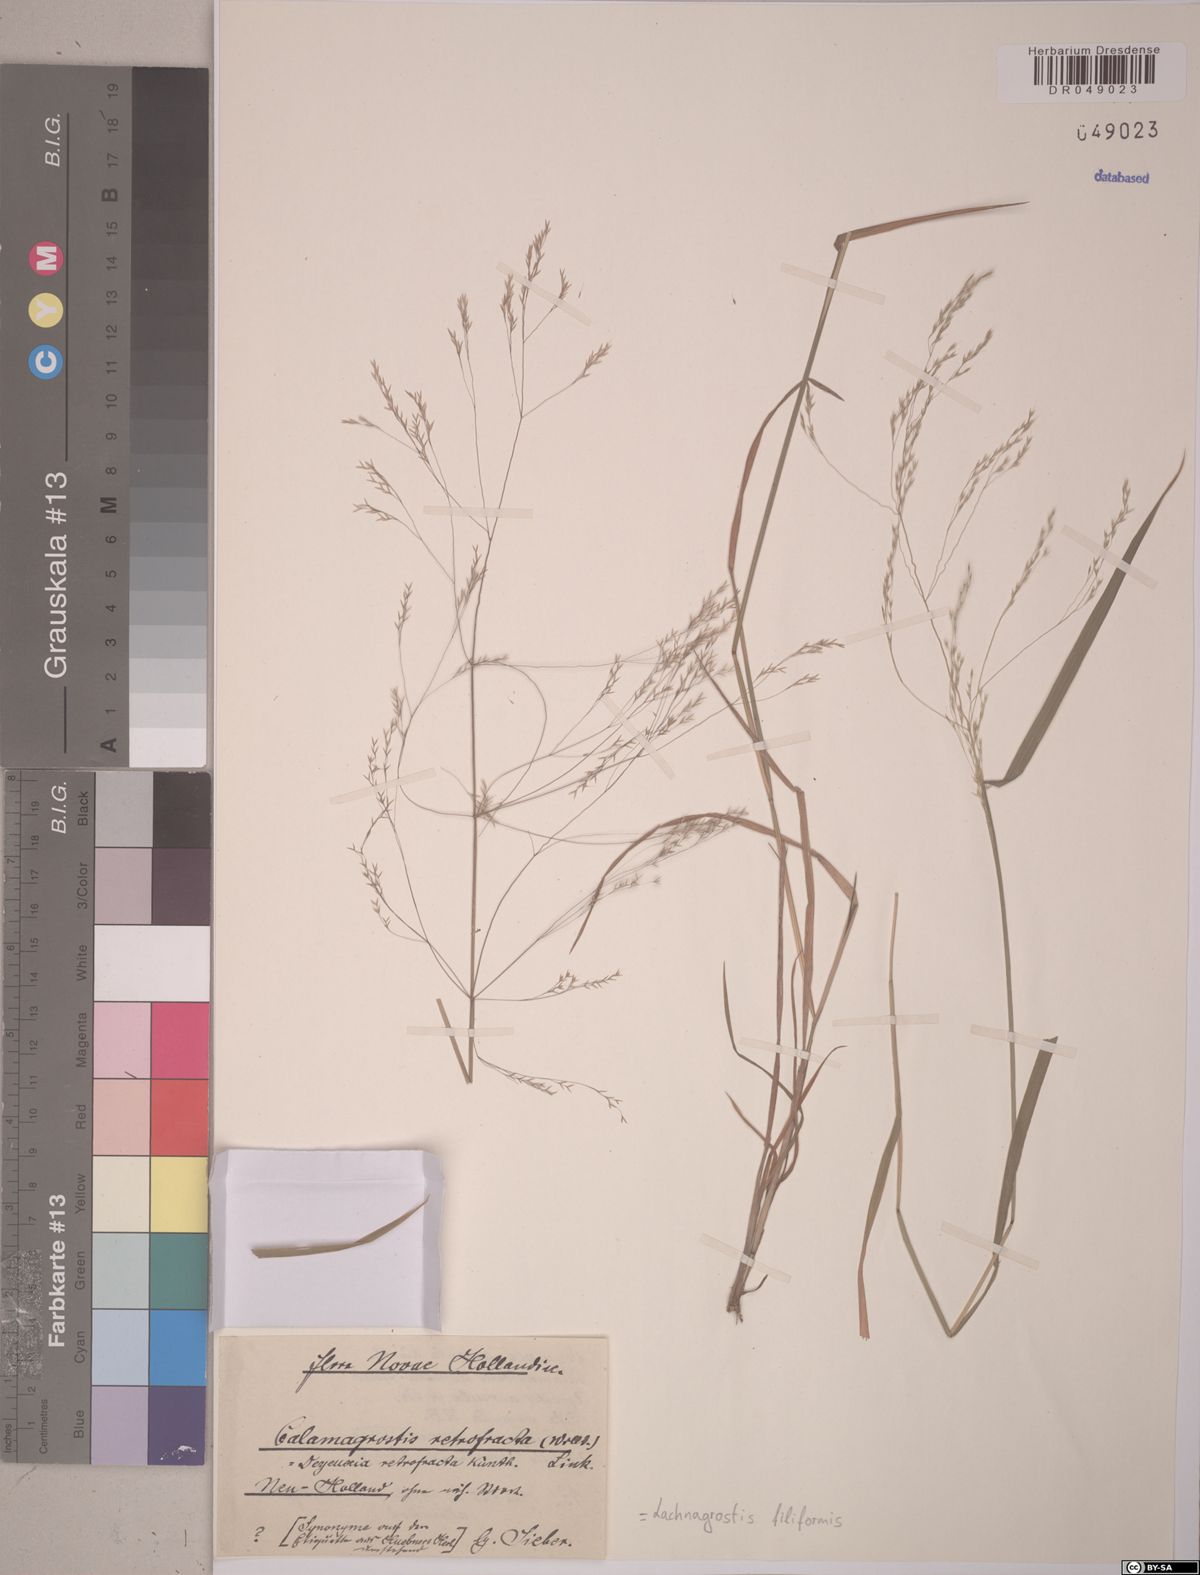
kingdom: Plantae
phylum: Tracheophyta
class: Liliopsida
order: Poales
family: Poaceae
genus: Lachnagrostis
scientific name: Lachnagrostis filiformis
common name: Bentgrass
